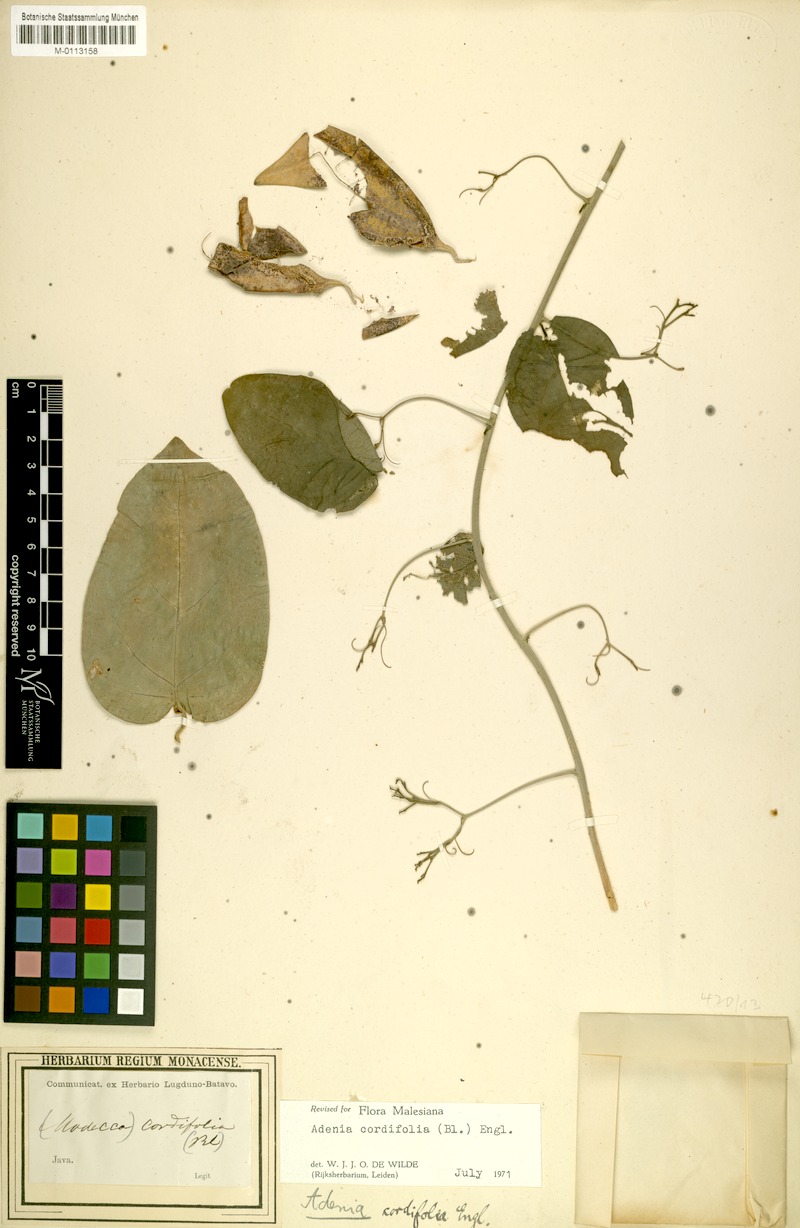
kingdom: Plantae
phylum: Tracheophyta
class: Magnoliopsida
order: Malpighiales
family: Passifloraceae
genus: Adenia
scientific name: Adenia cordifolia
